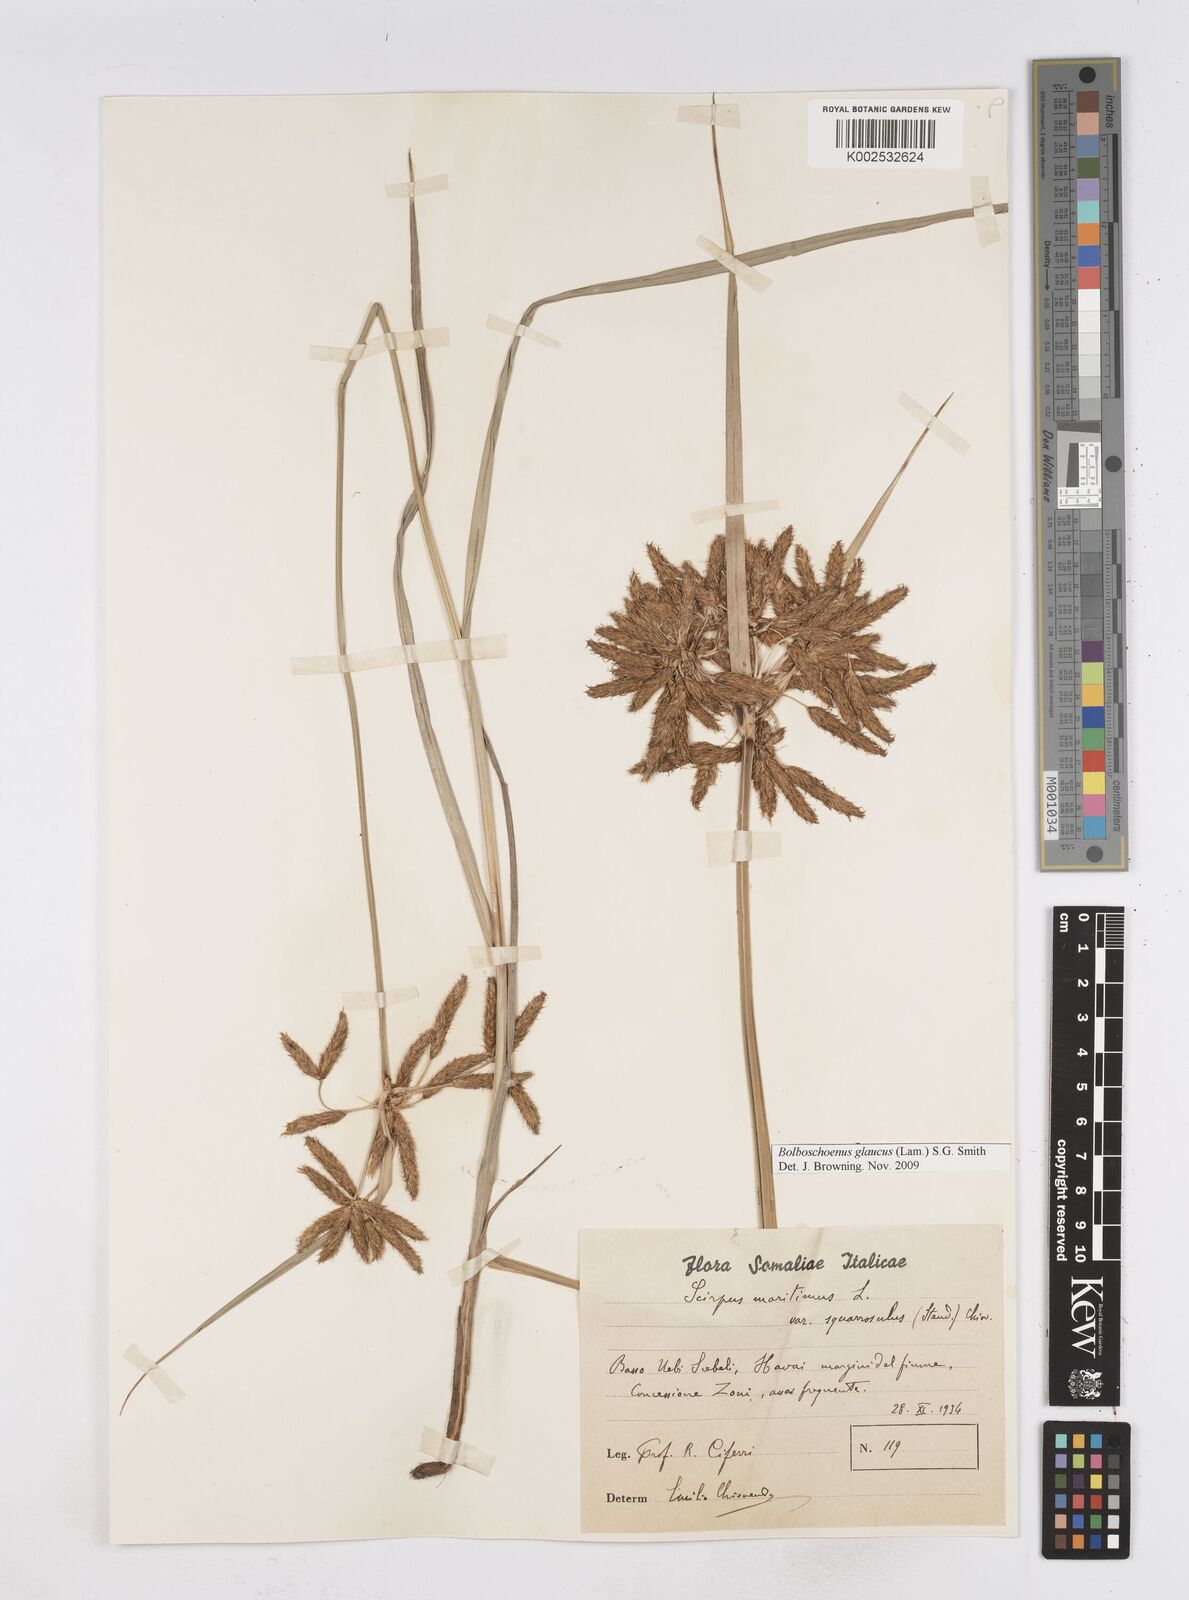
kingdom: Plantae
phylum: Tracheophyta
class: Liliopsida
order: Poales
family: Cyperaceae
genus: Bolboschoenus
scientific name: Bolboschoenus glaucus
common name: Tuberous bulrush
